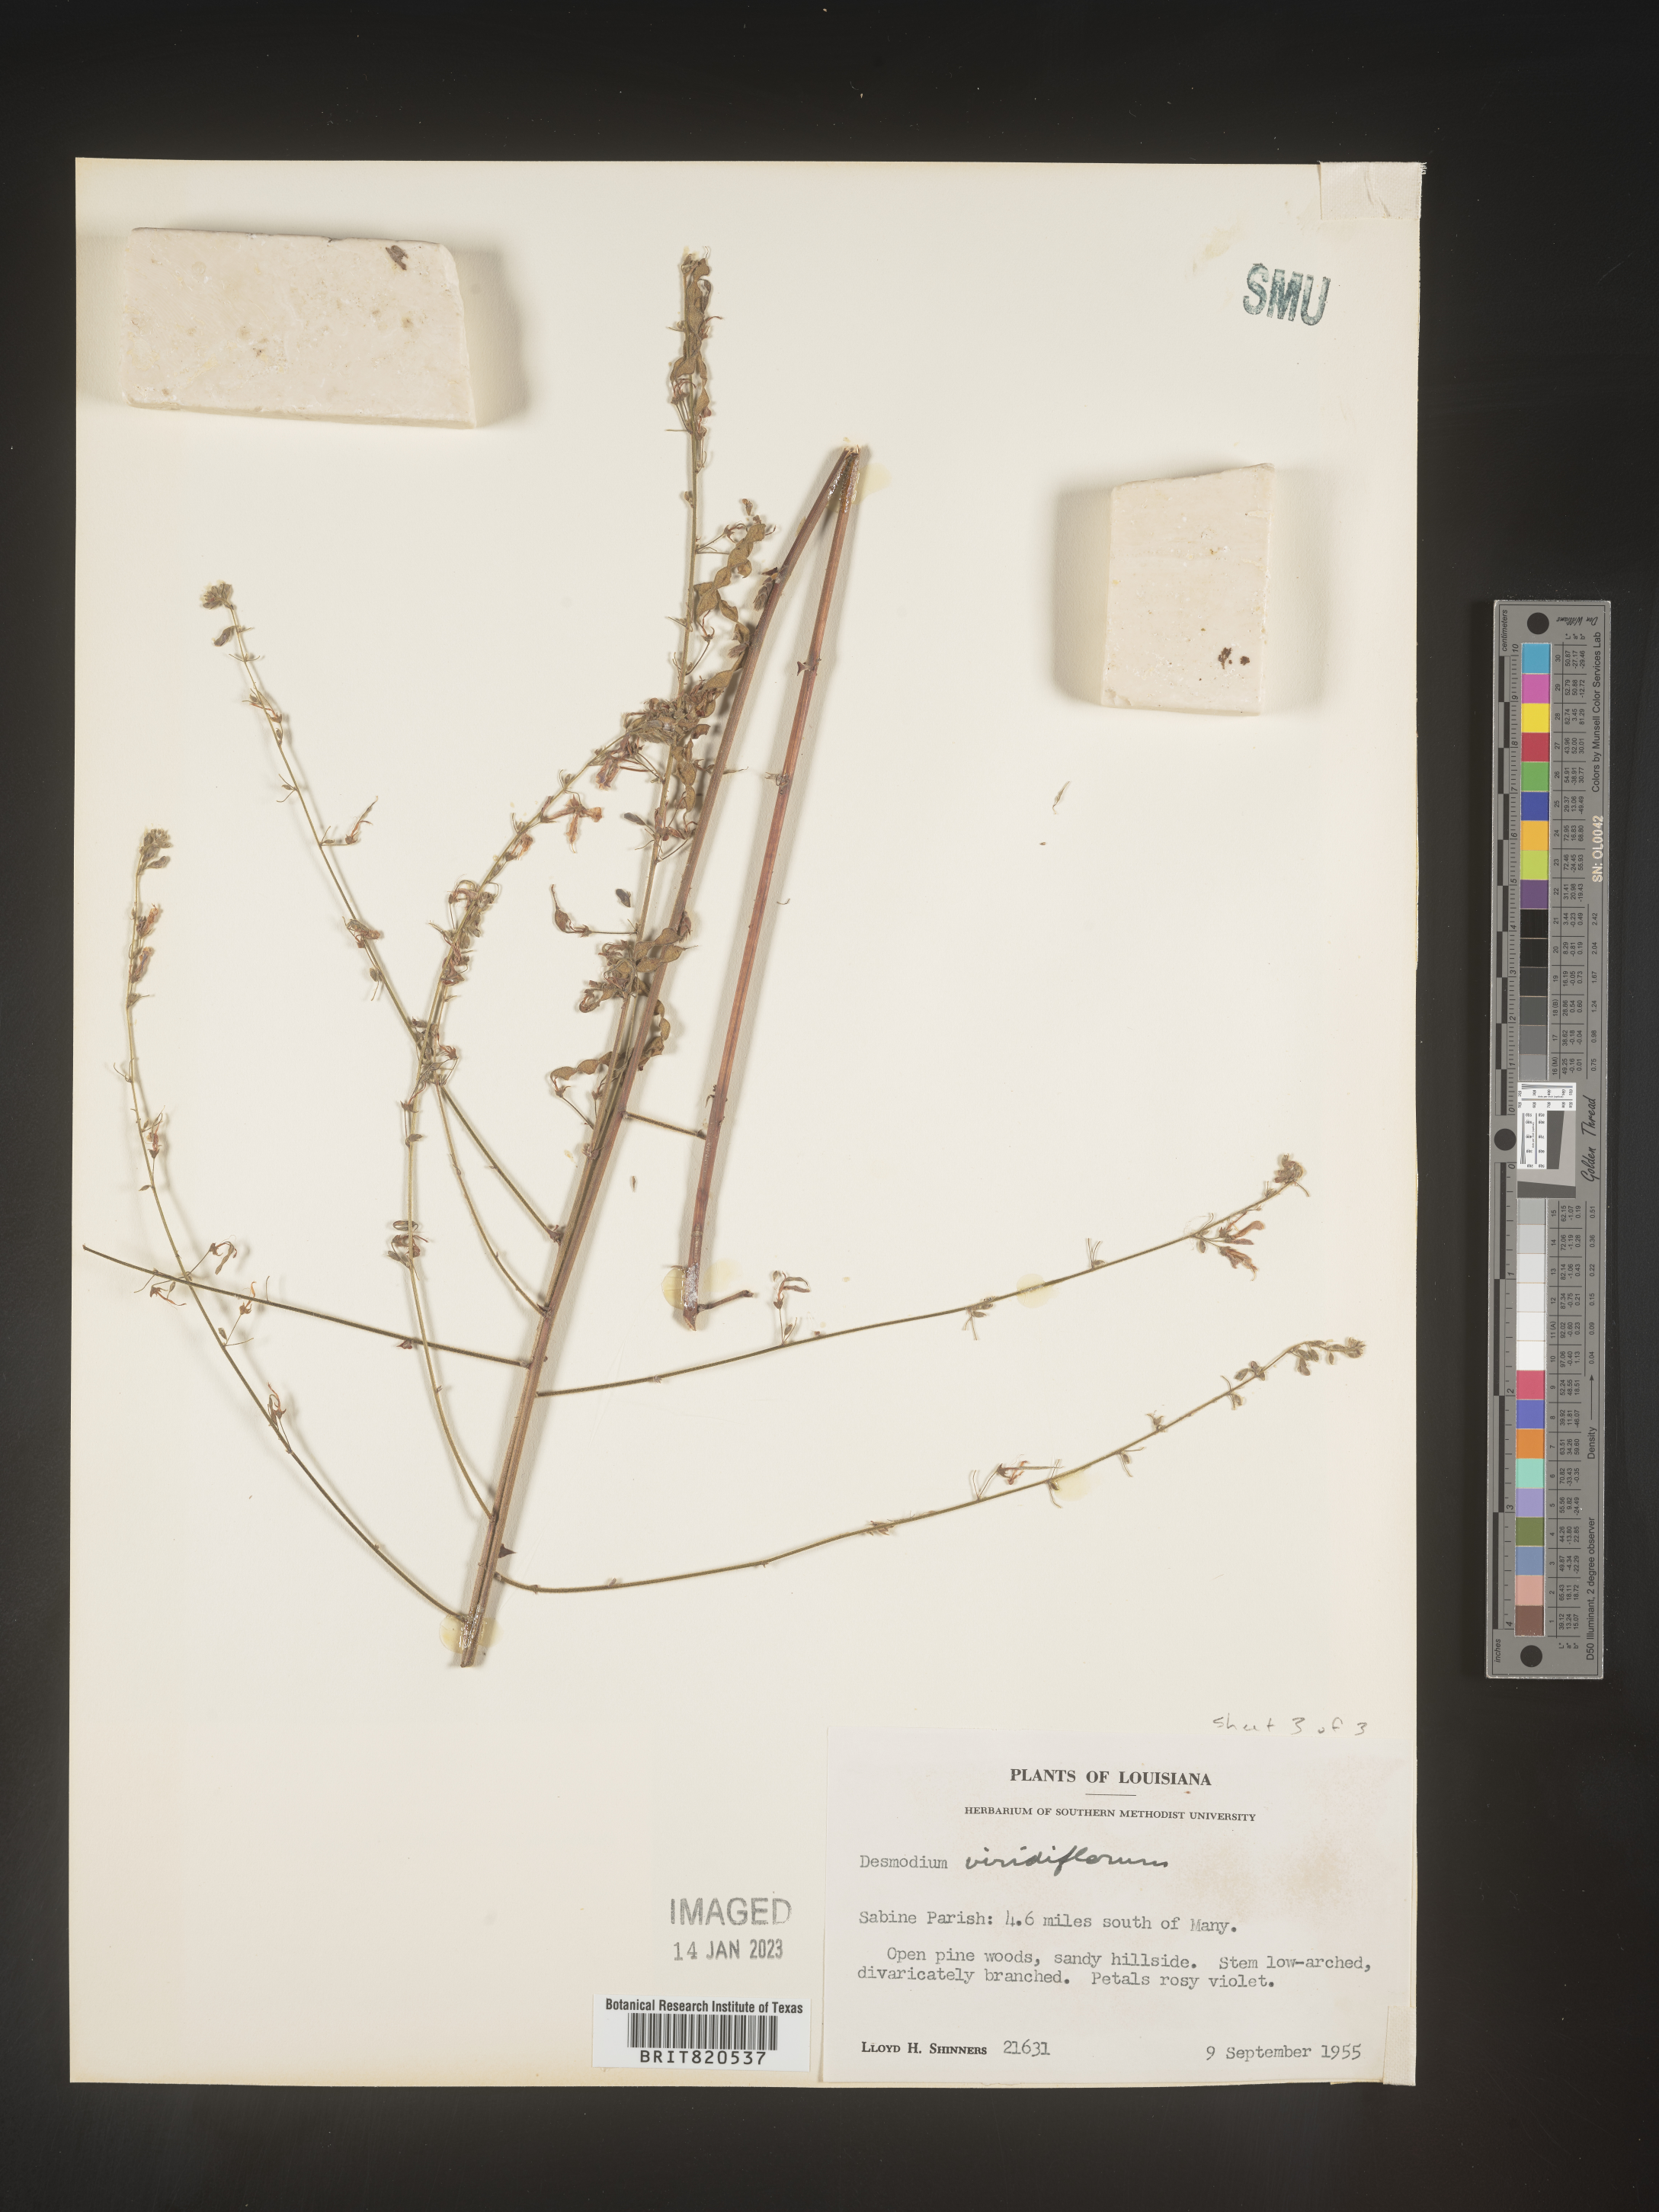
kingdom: Plantae
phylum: Tracheophyta
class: Magnoliopsida
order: Fabales
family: Fabaceae
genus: Desmodium
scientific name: Desmodium viridiflorum
